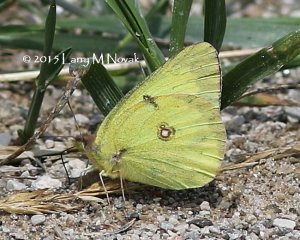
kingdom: Animalia
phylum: Arthropoda
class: Insecta
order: Lepidoptera
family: Pieridae
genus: Colias
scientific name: Colias philodice
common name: Clouded Sulphur
